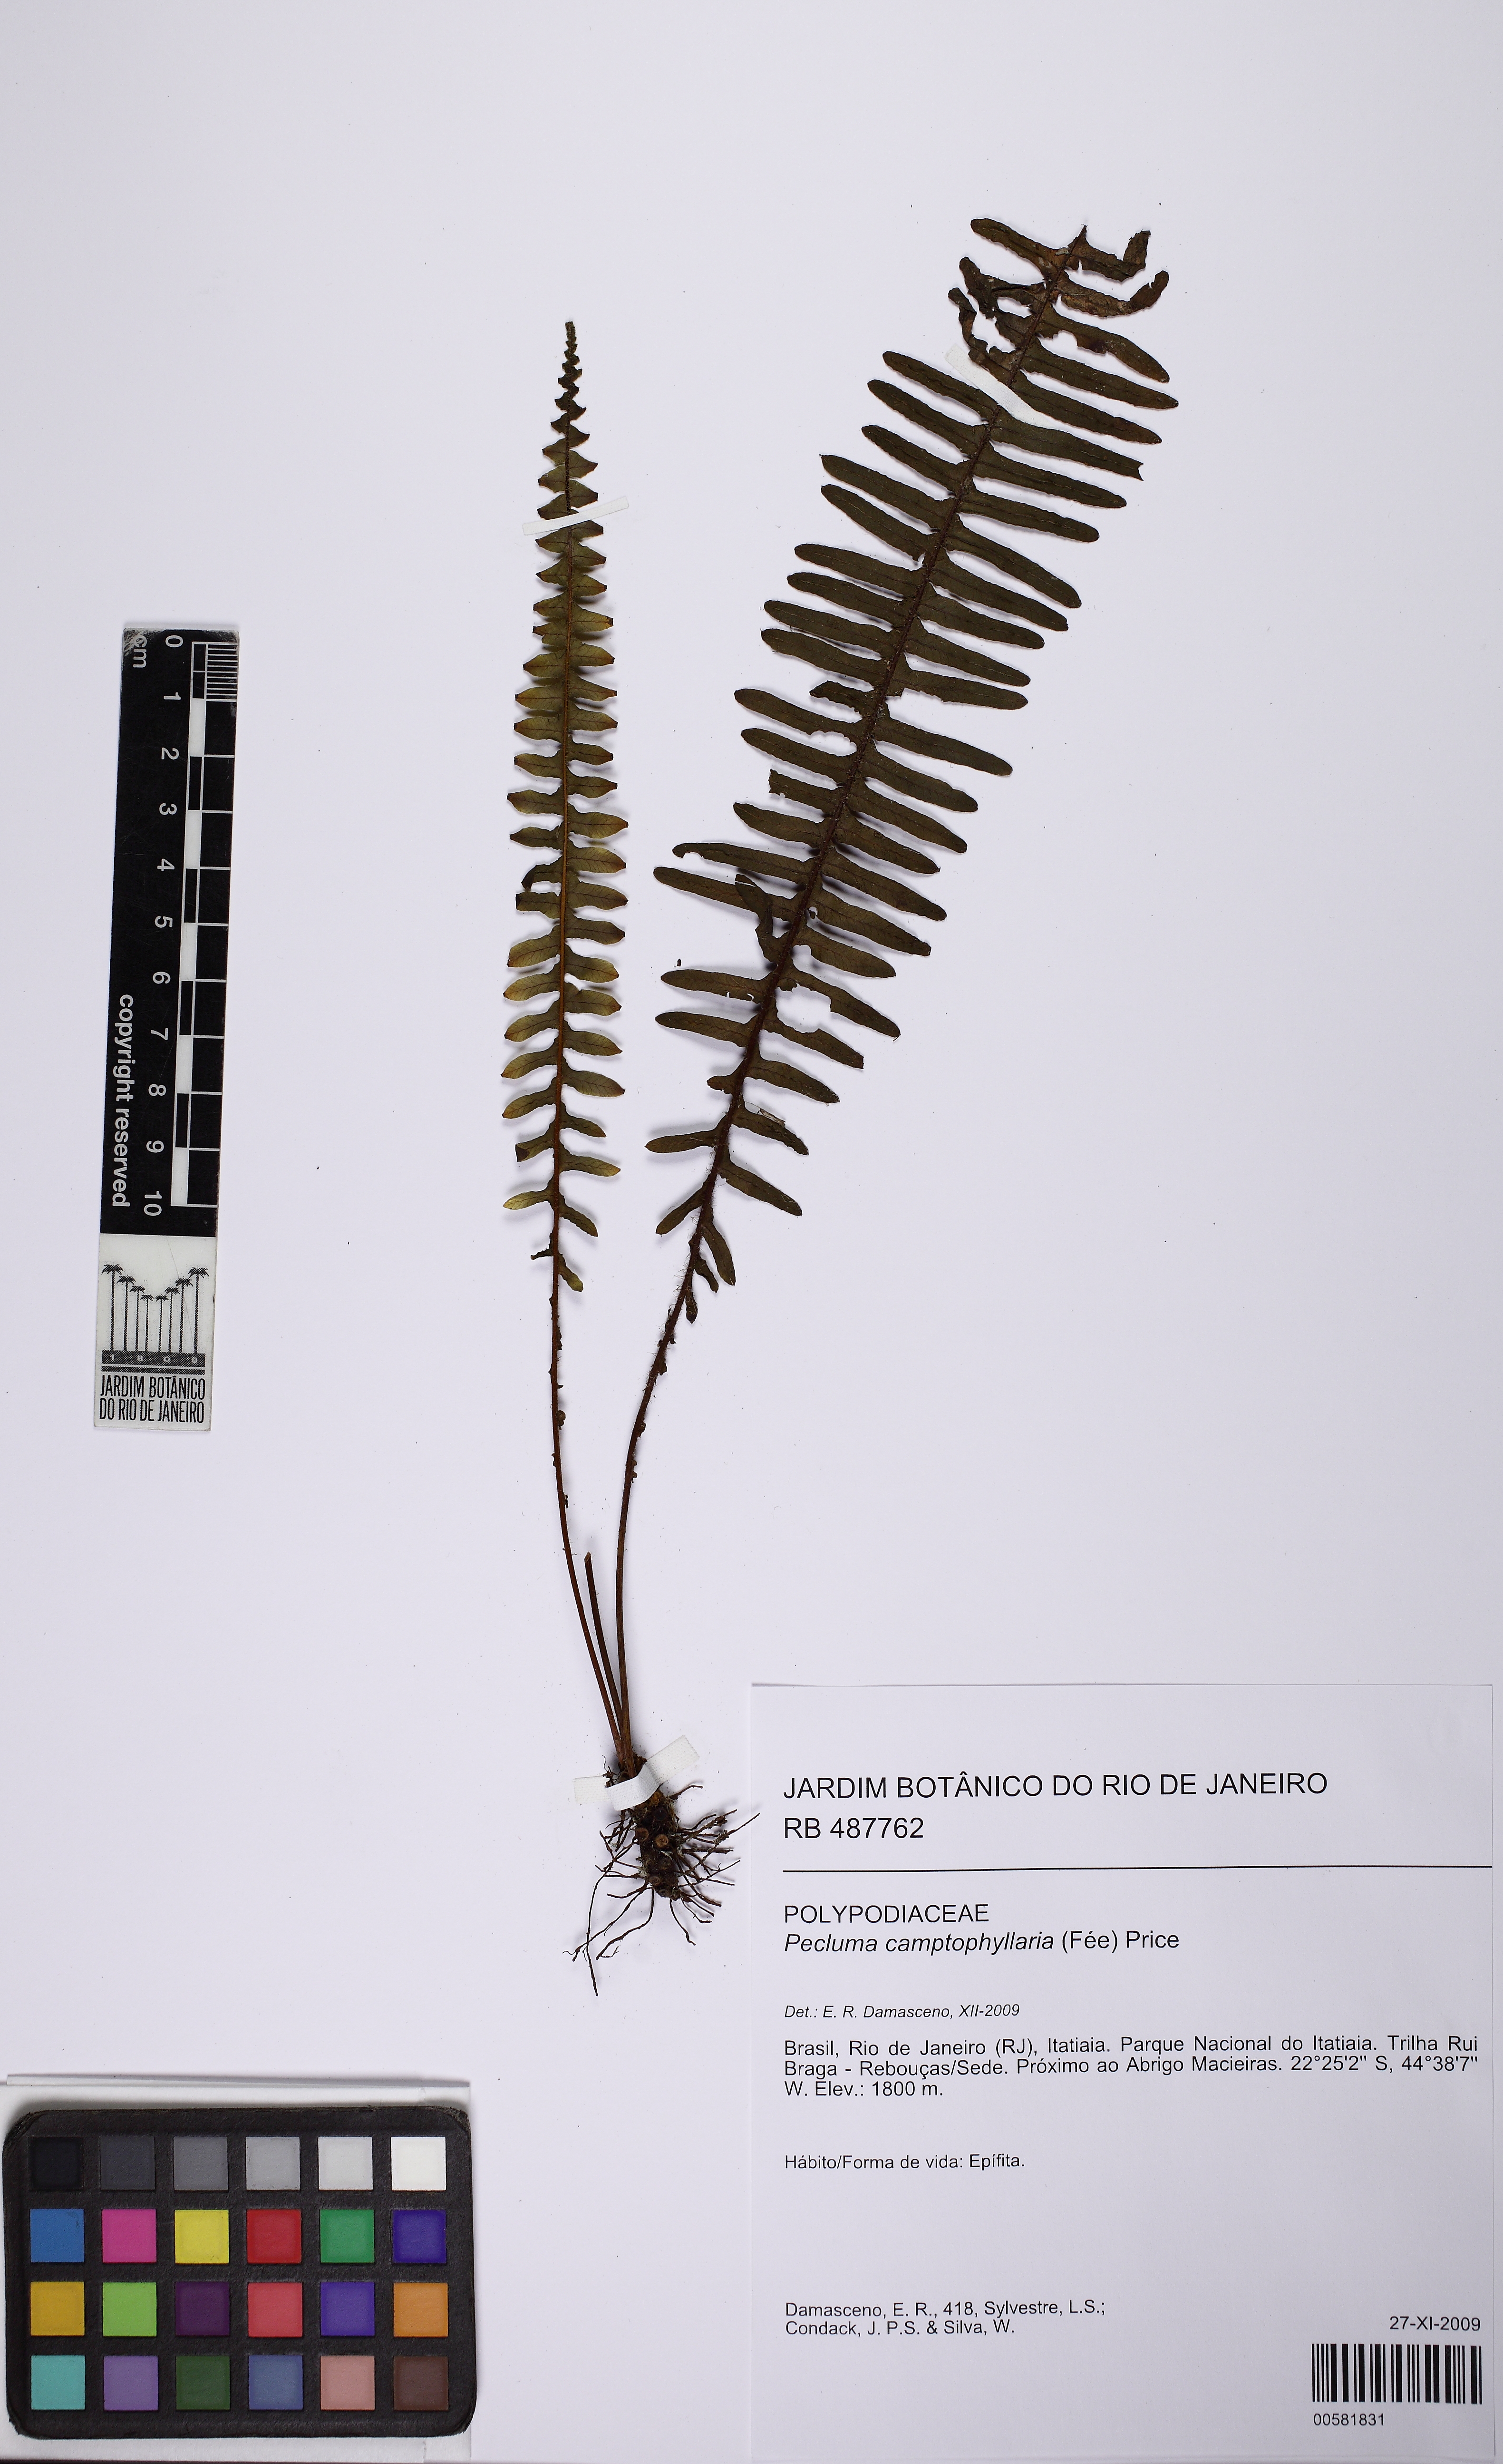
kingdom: Plantae
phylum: Tracheophyta
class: Polypodiopsida
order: Polypodiales
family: Polypodiaceae
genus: Pecluma
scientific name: Pecluma camptophyllaria
